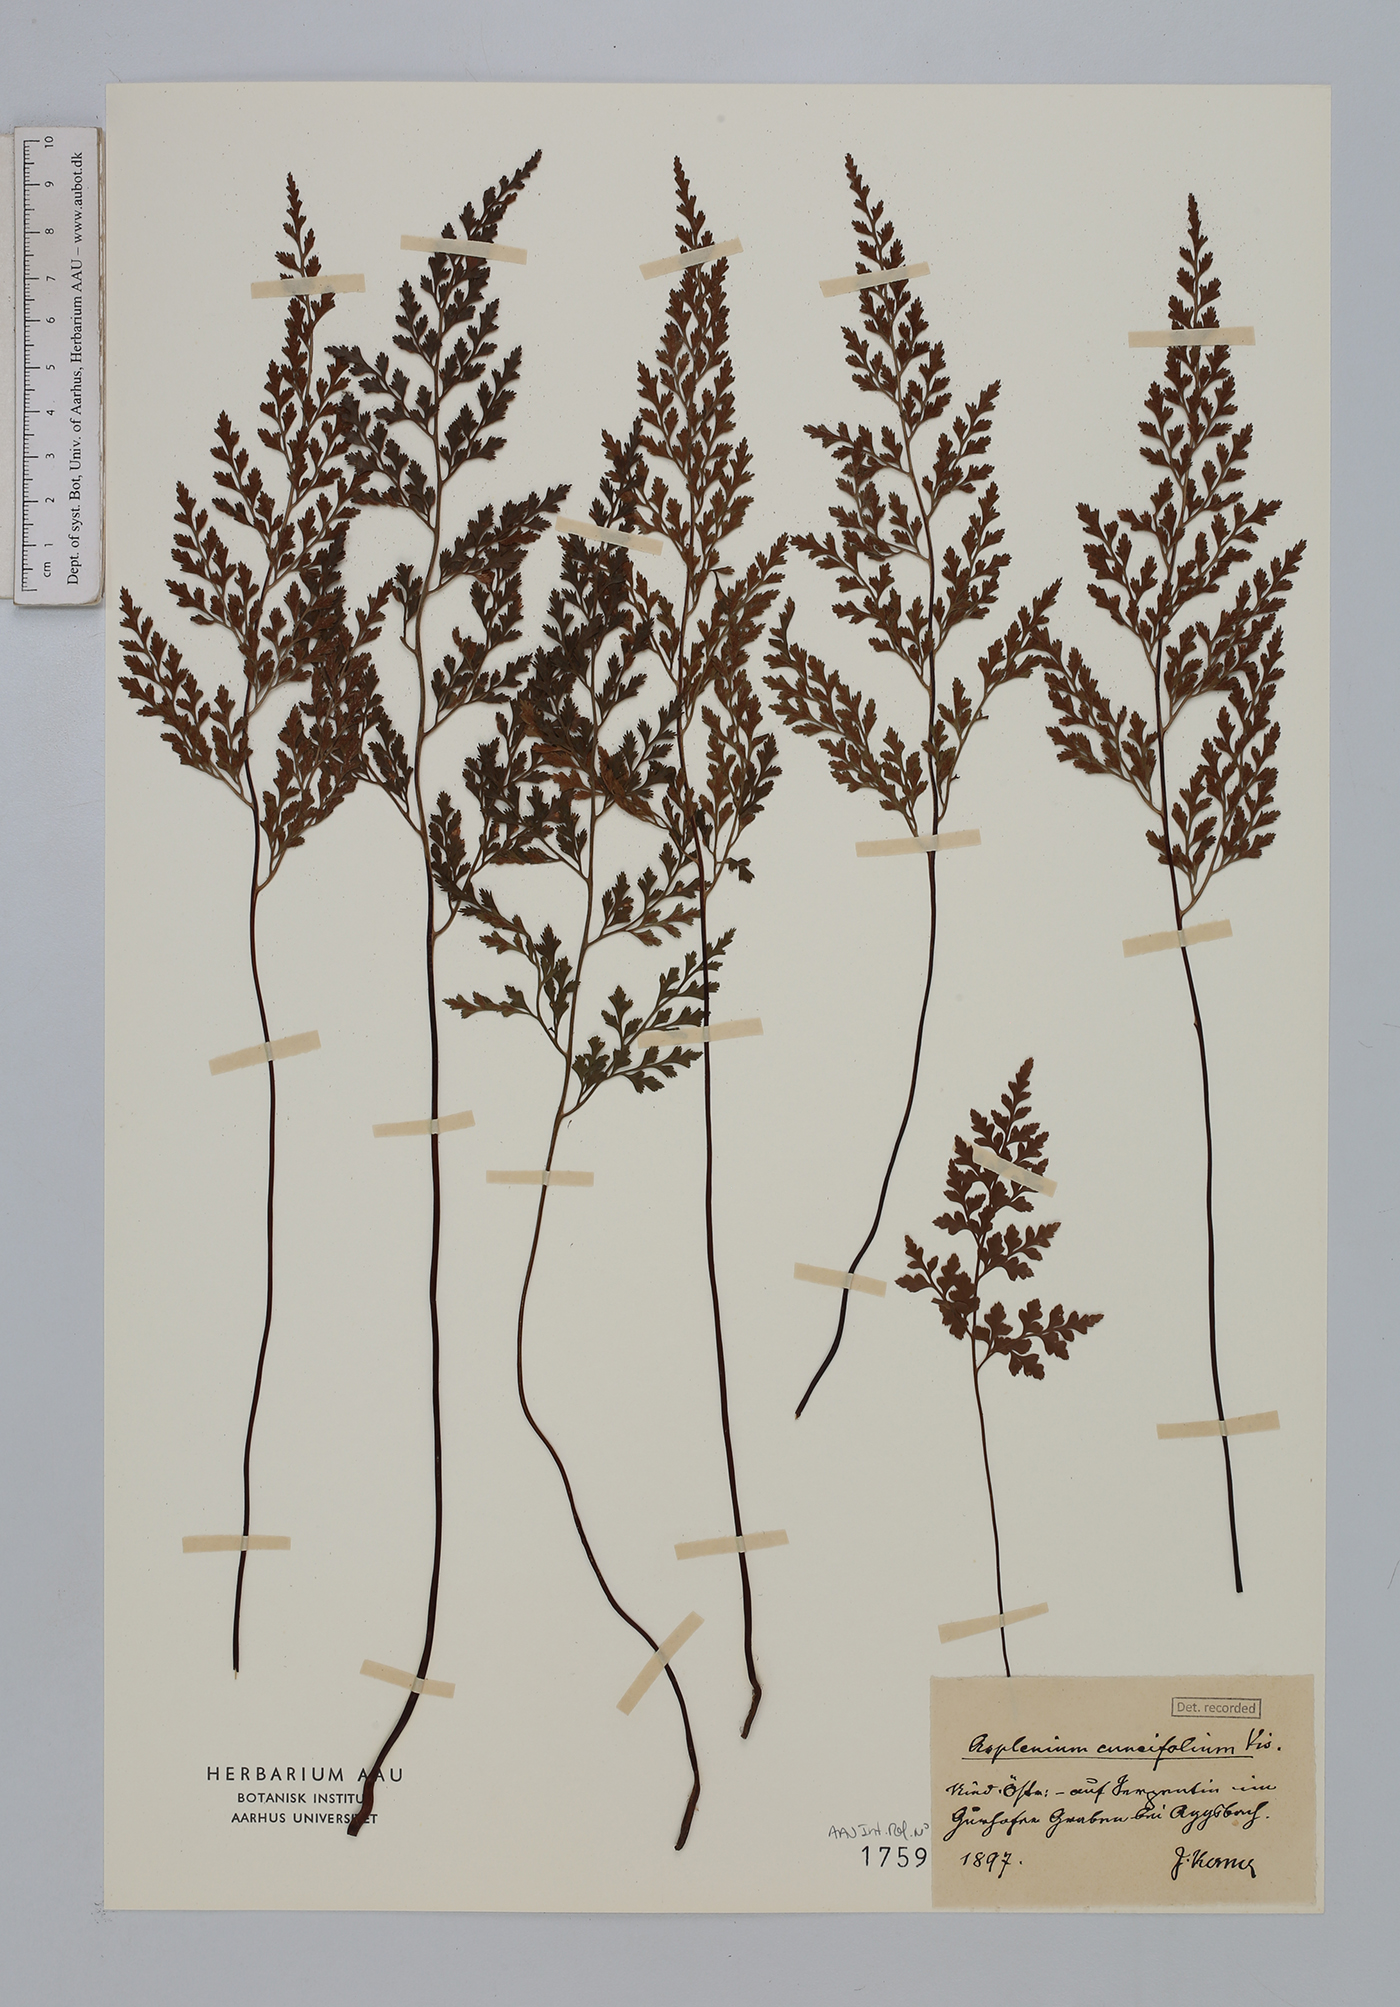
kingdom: Plantae
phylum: Tracheophyta
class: Polypodiopsida
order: Polypodiales
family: Aspleniaceae
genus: Asplenium
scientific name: Asplenium cuneifolium
